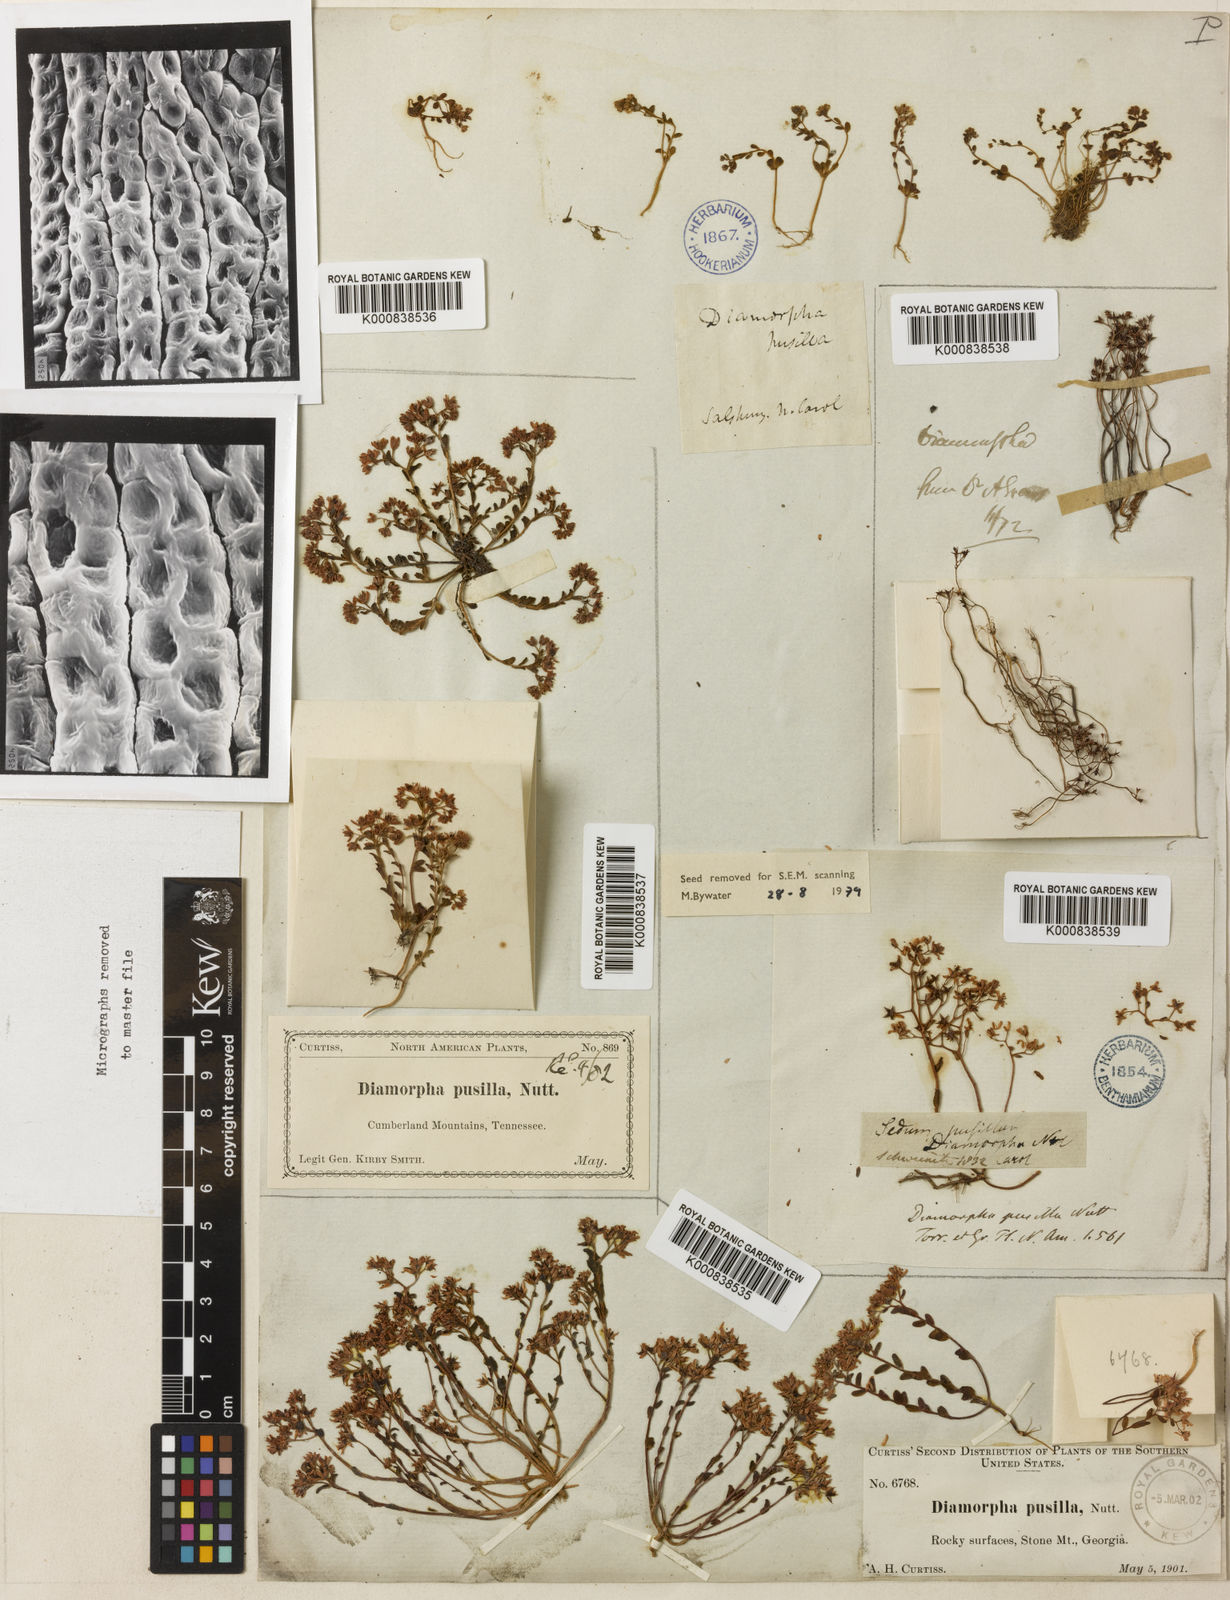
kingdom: Plantae
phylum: Tracheophyta
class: Magnoliopsida
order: Saxifragales
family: Crassulaceae
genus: Sedum
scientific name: Sedum pusillum
